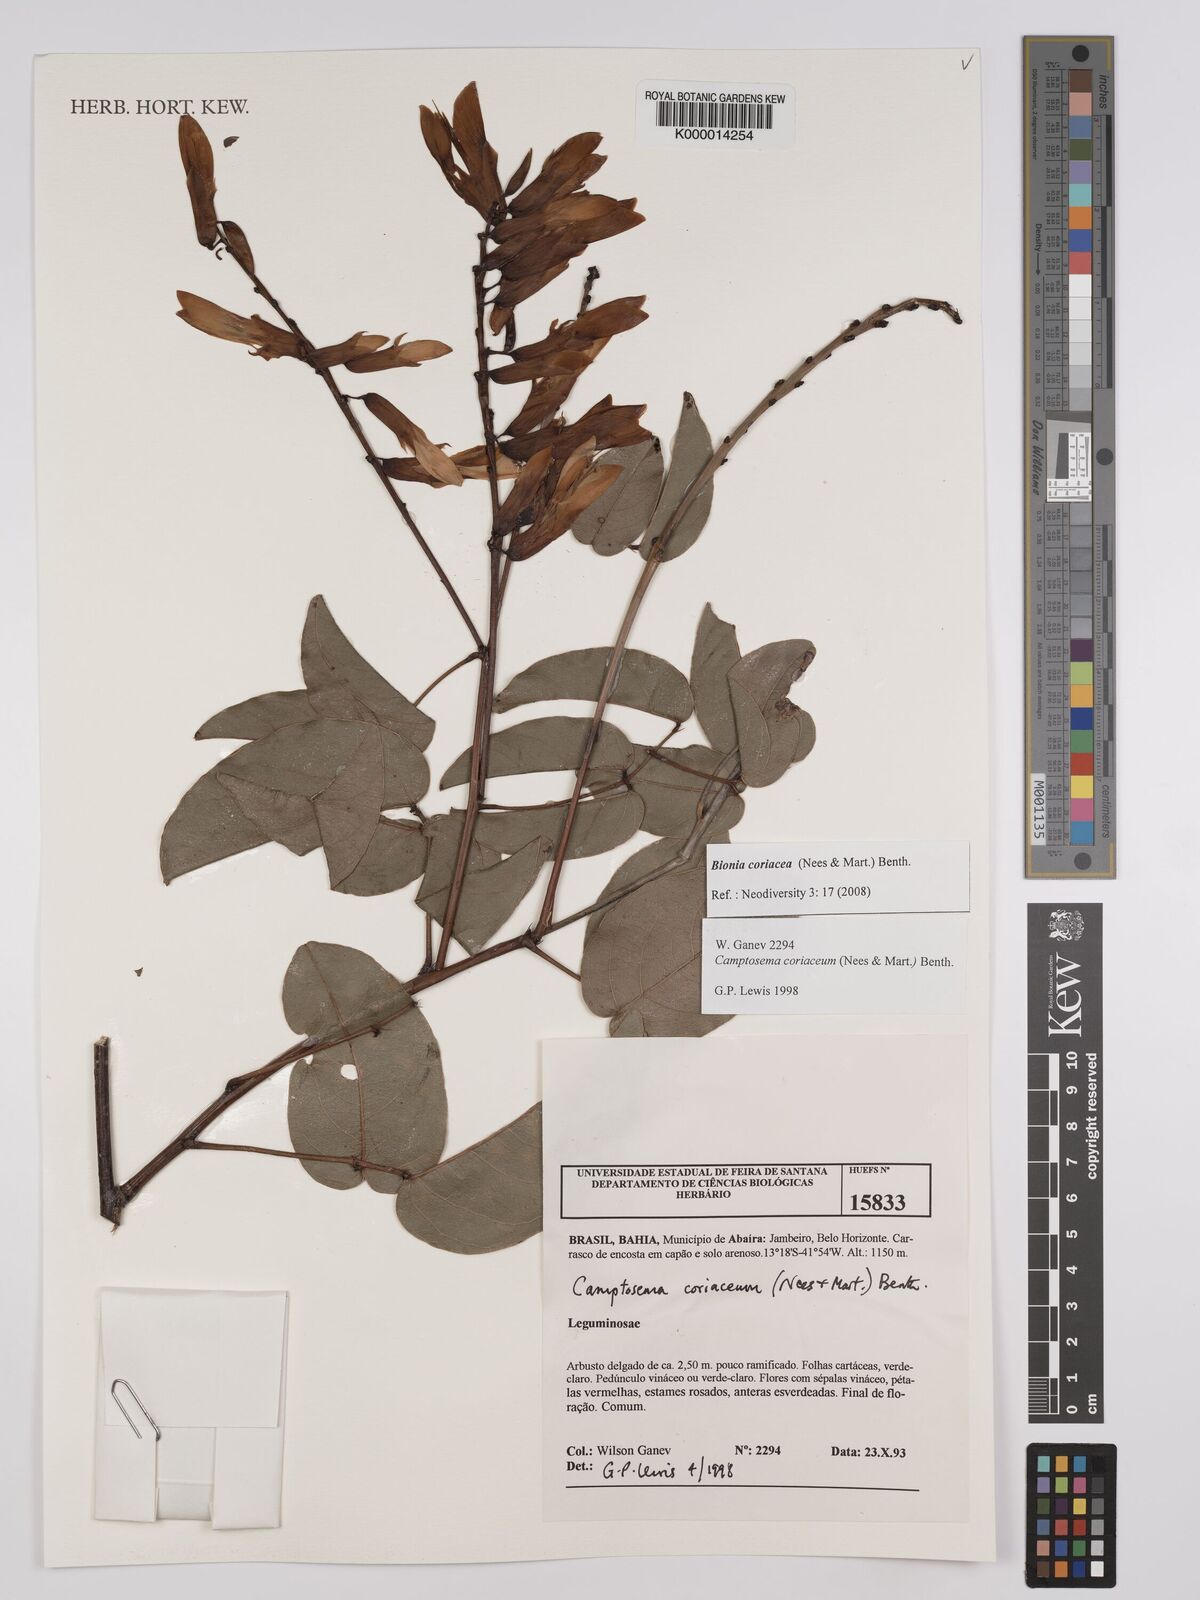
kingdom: Plantae
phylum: Tracheophyta
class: Magnoliopsida
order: Fabales
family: Fabaceae
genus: Camptosema
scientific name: Camptosema coriaceum
